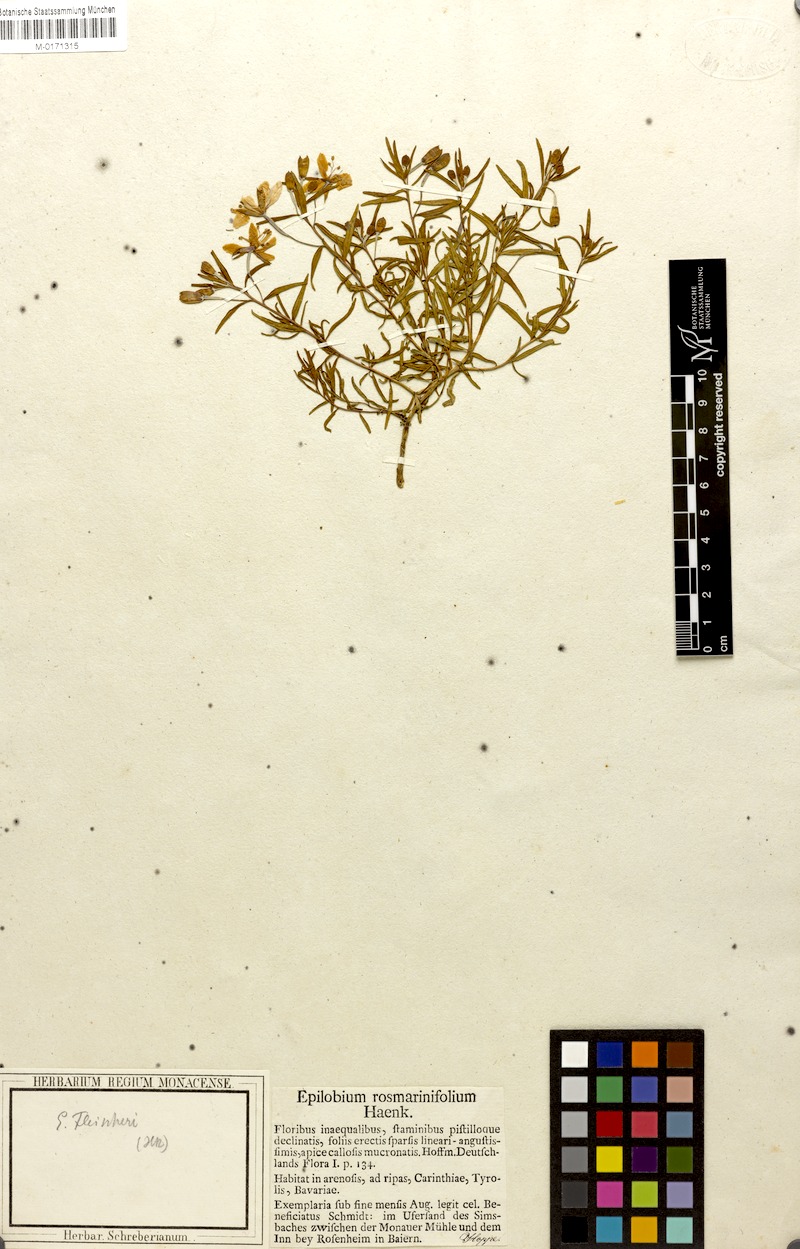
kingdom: Plantae
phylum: Tracheophyta
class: Magnoliopsida
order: Myrtales
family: Onagraceae
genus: Chamaenerion
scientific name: Chamaenerion fleischeri
